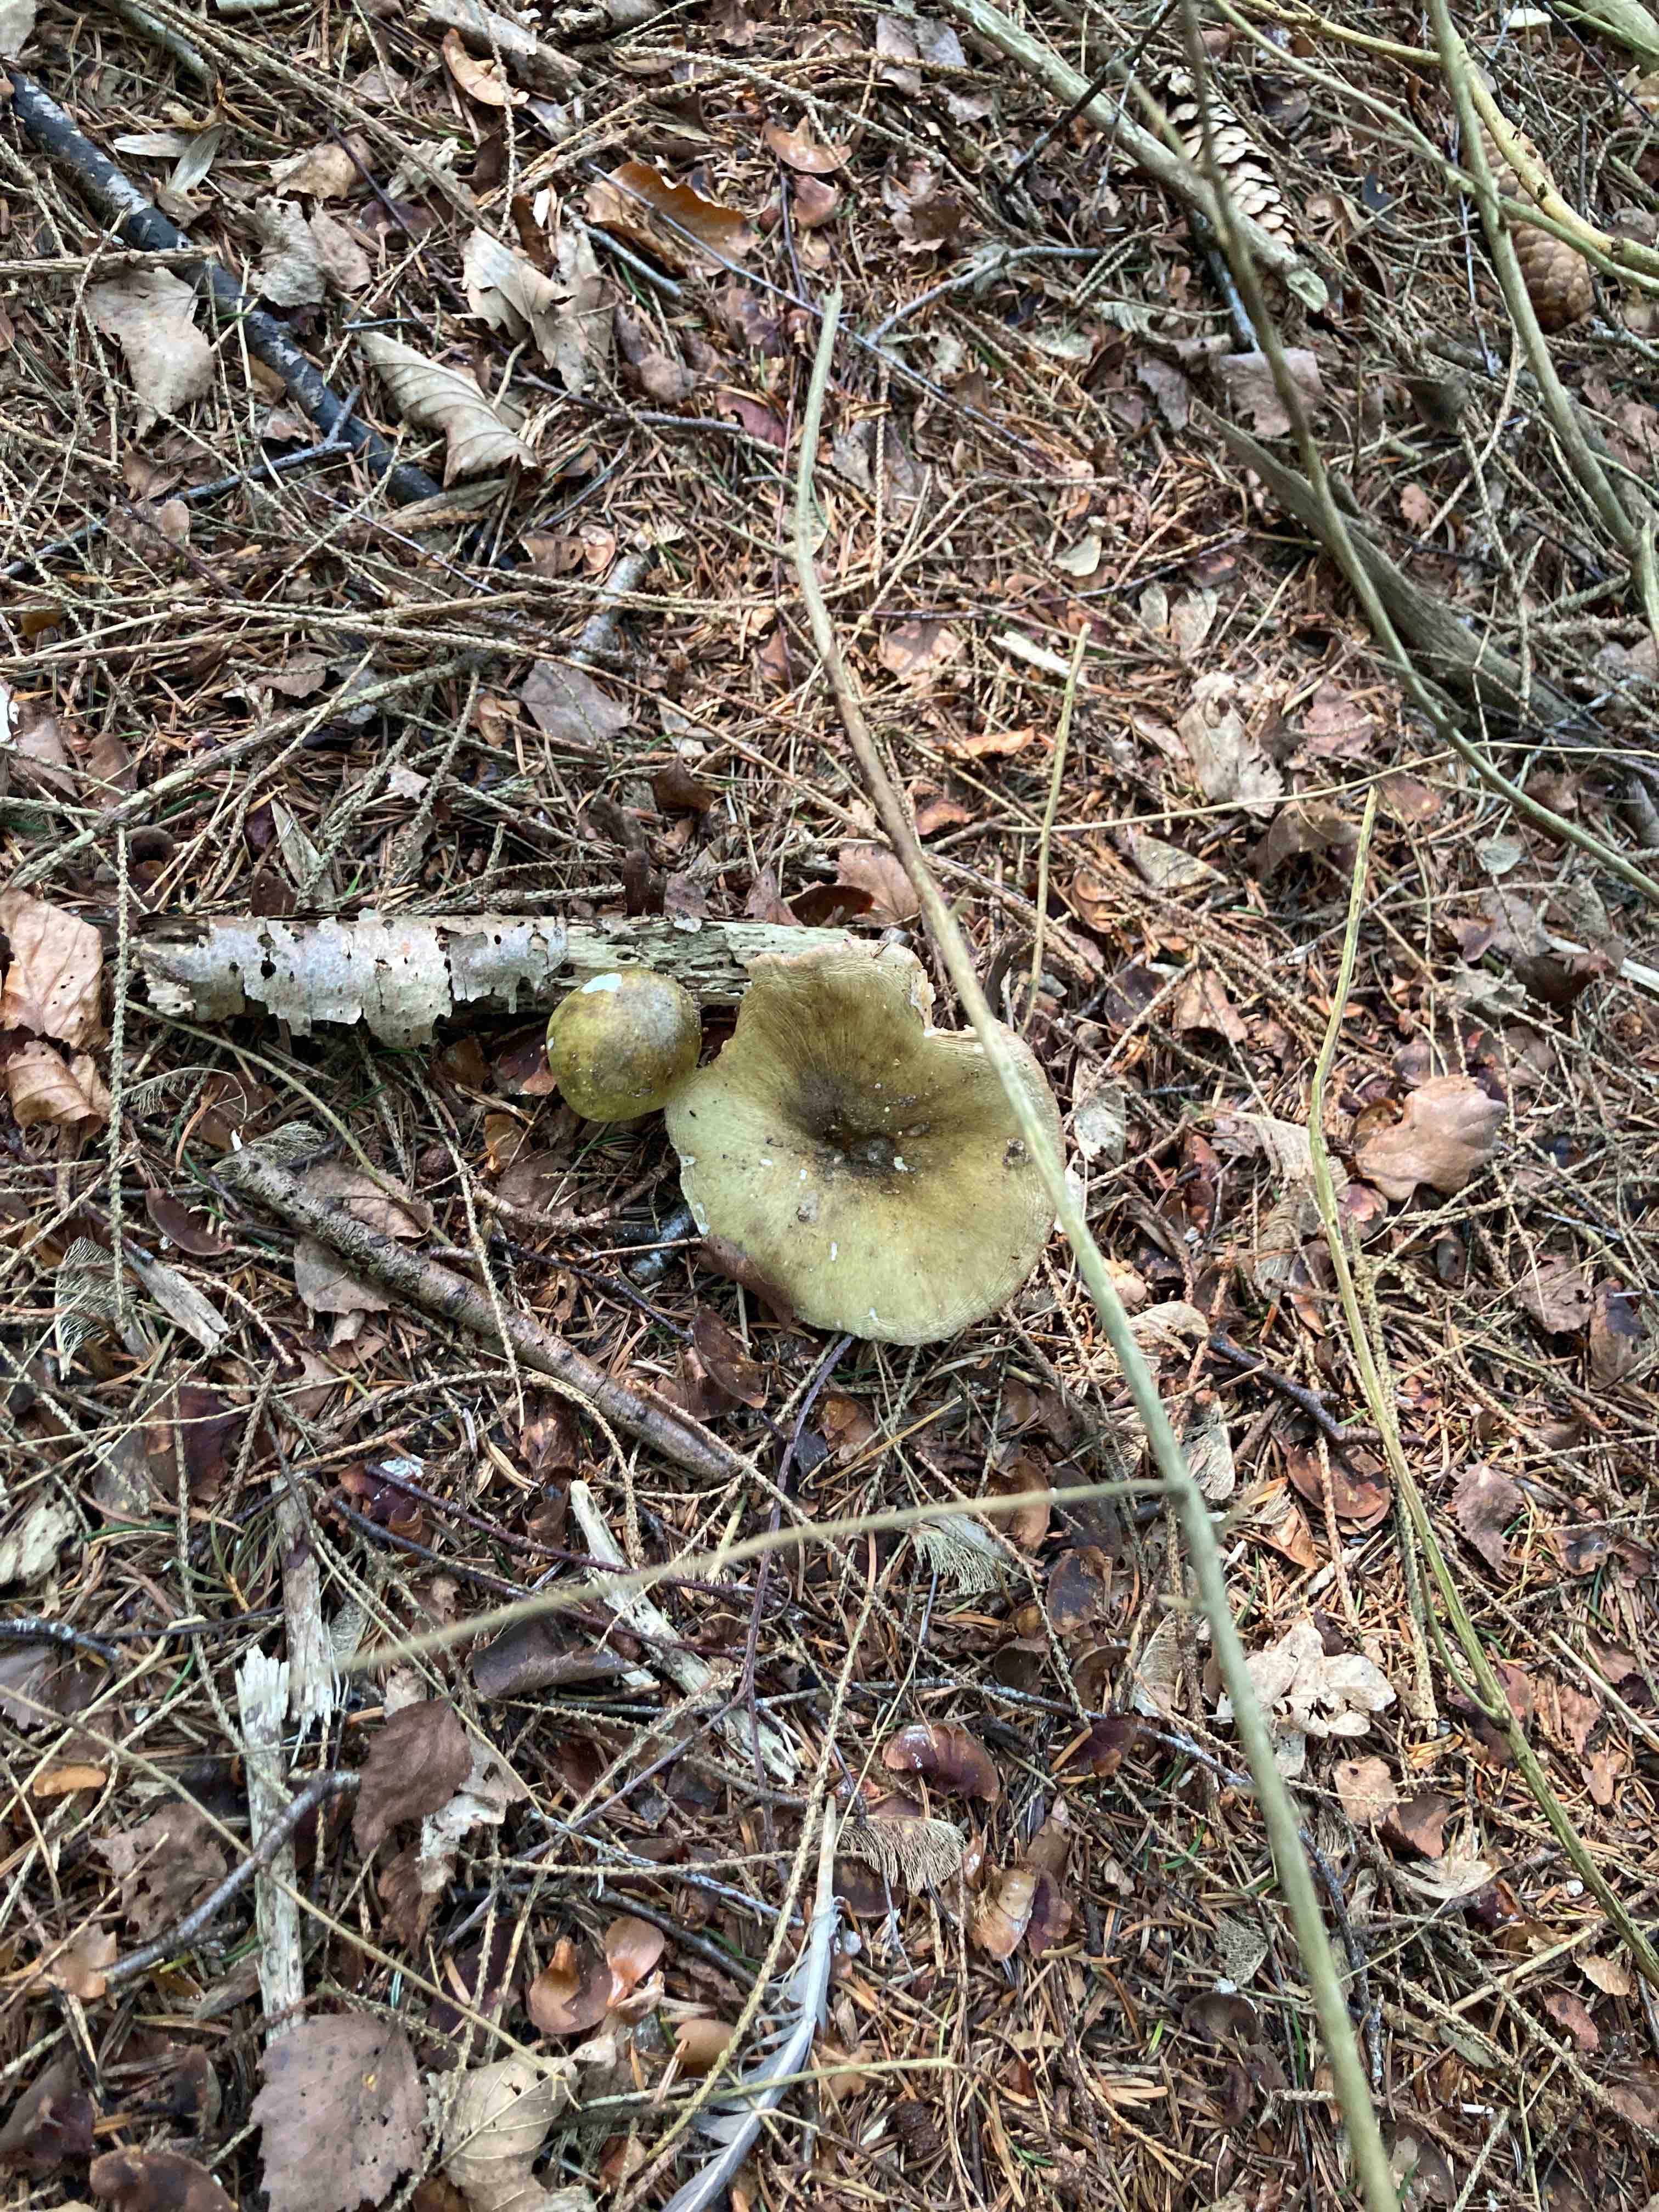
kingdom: Fungi
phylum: Basidiomycota
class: Agaricomycetes
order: Agaricales
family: Amanitaceae
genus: Amanita
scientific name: Amanita phalloides
